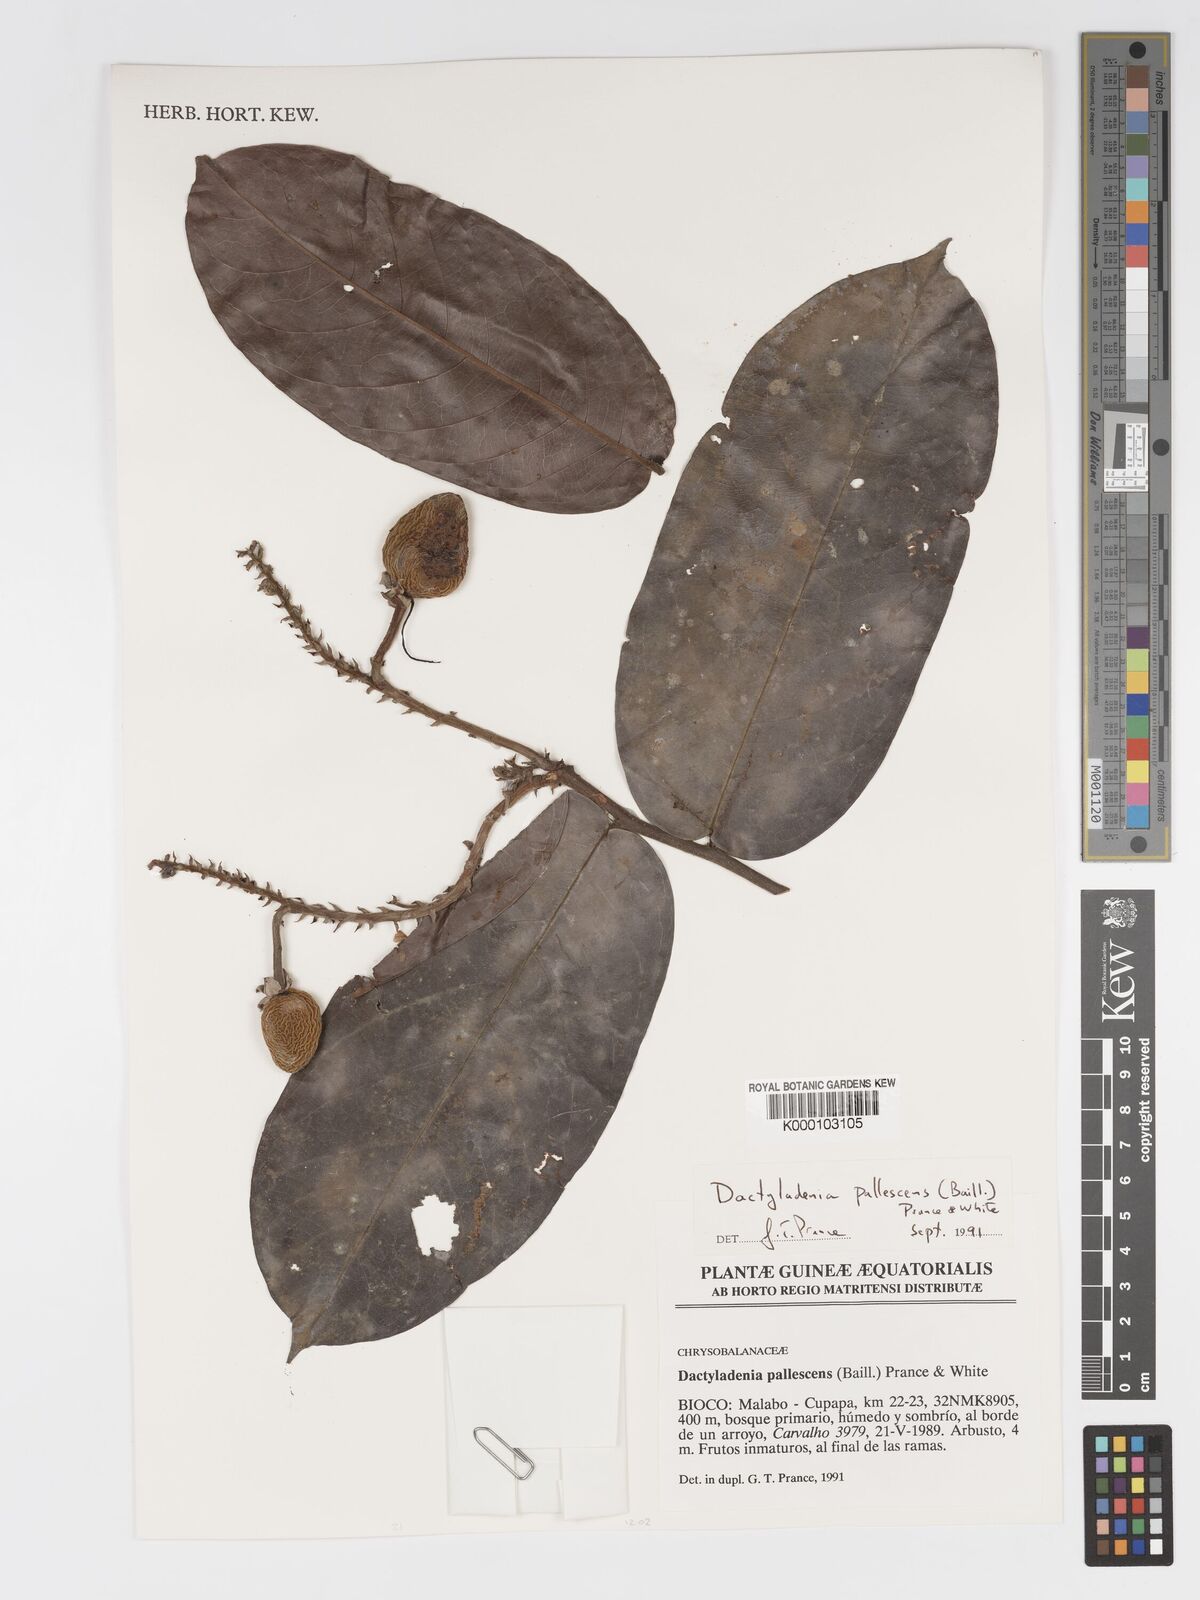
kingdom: Plantae
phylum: Tracheophyta
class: Magnoliopsida
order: Malpighiales
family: Chrysobalanaceae
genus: Dactyladenia
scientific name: Dactyladenia pallescens
